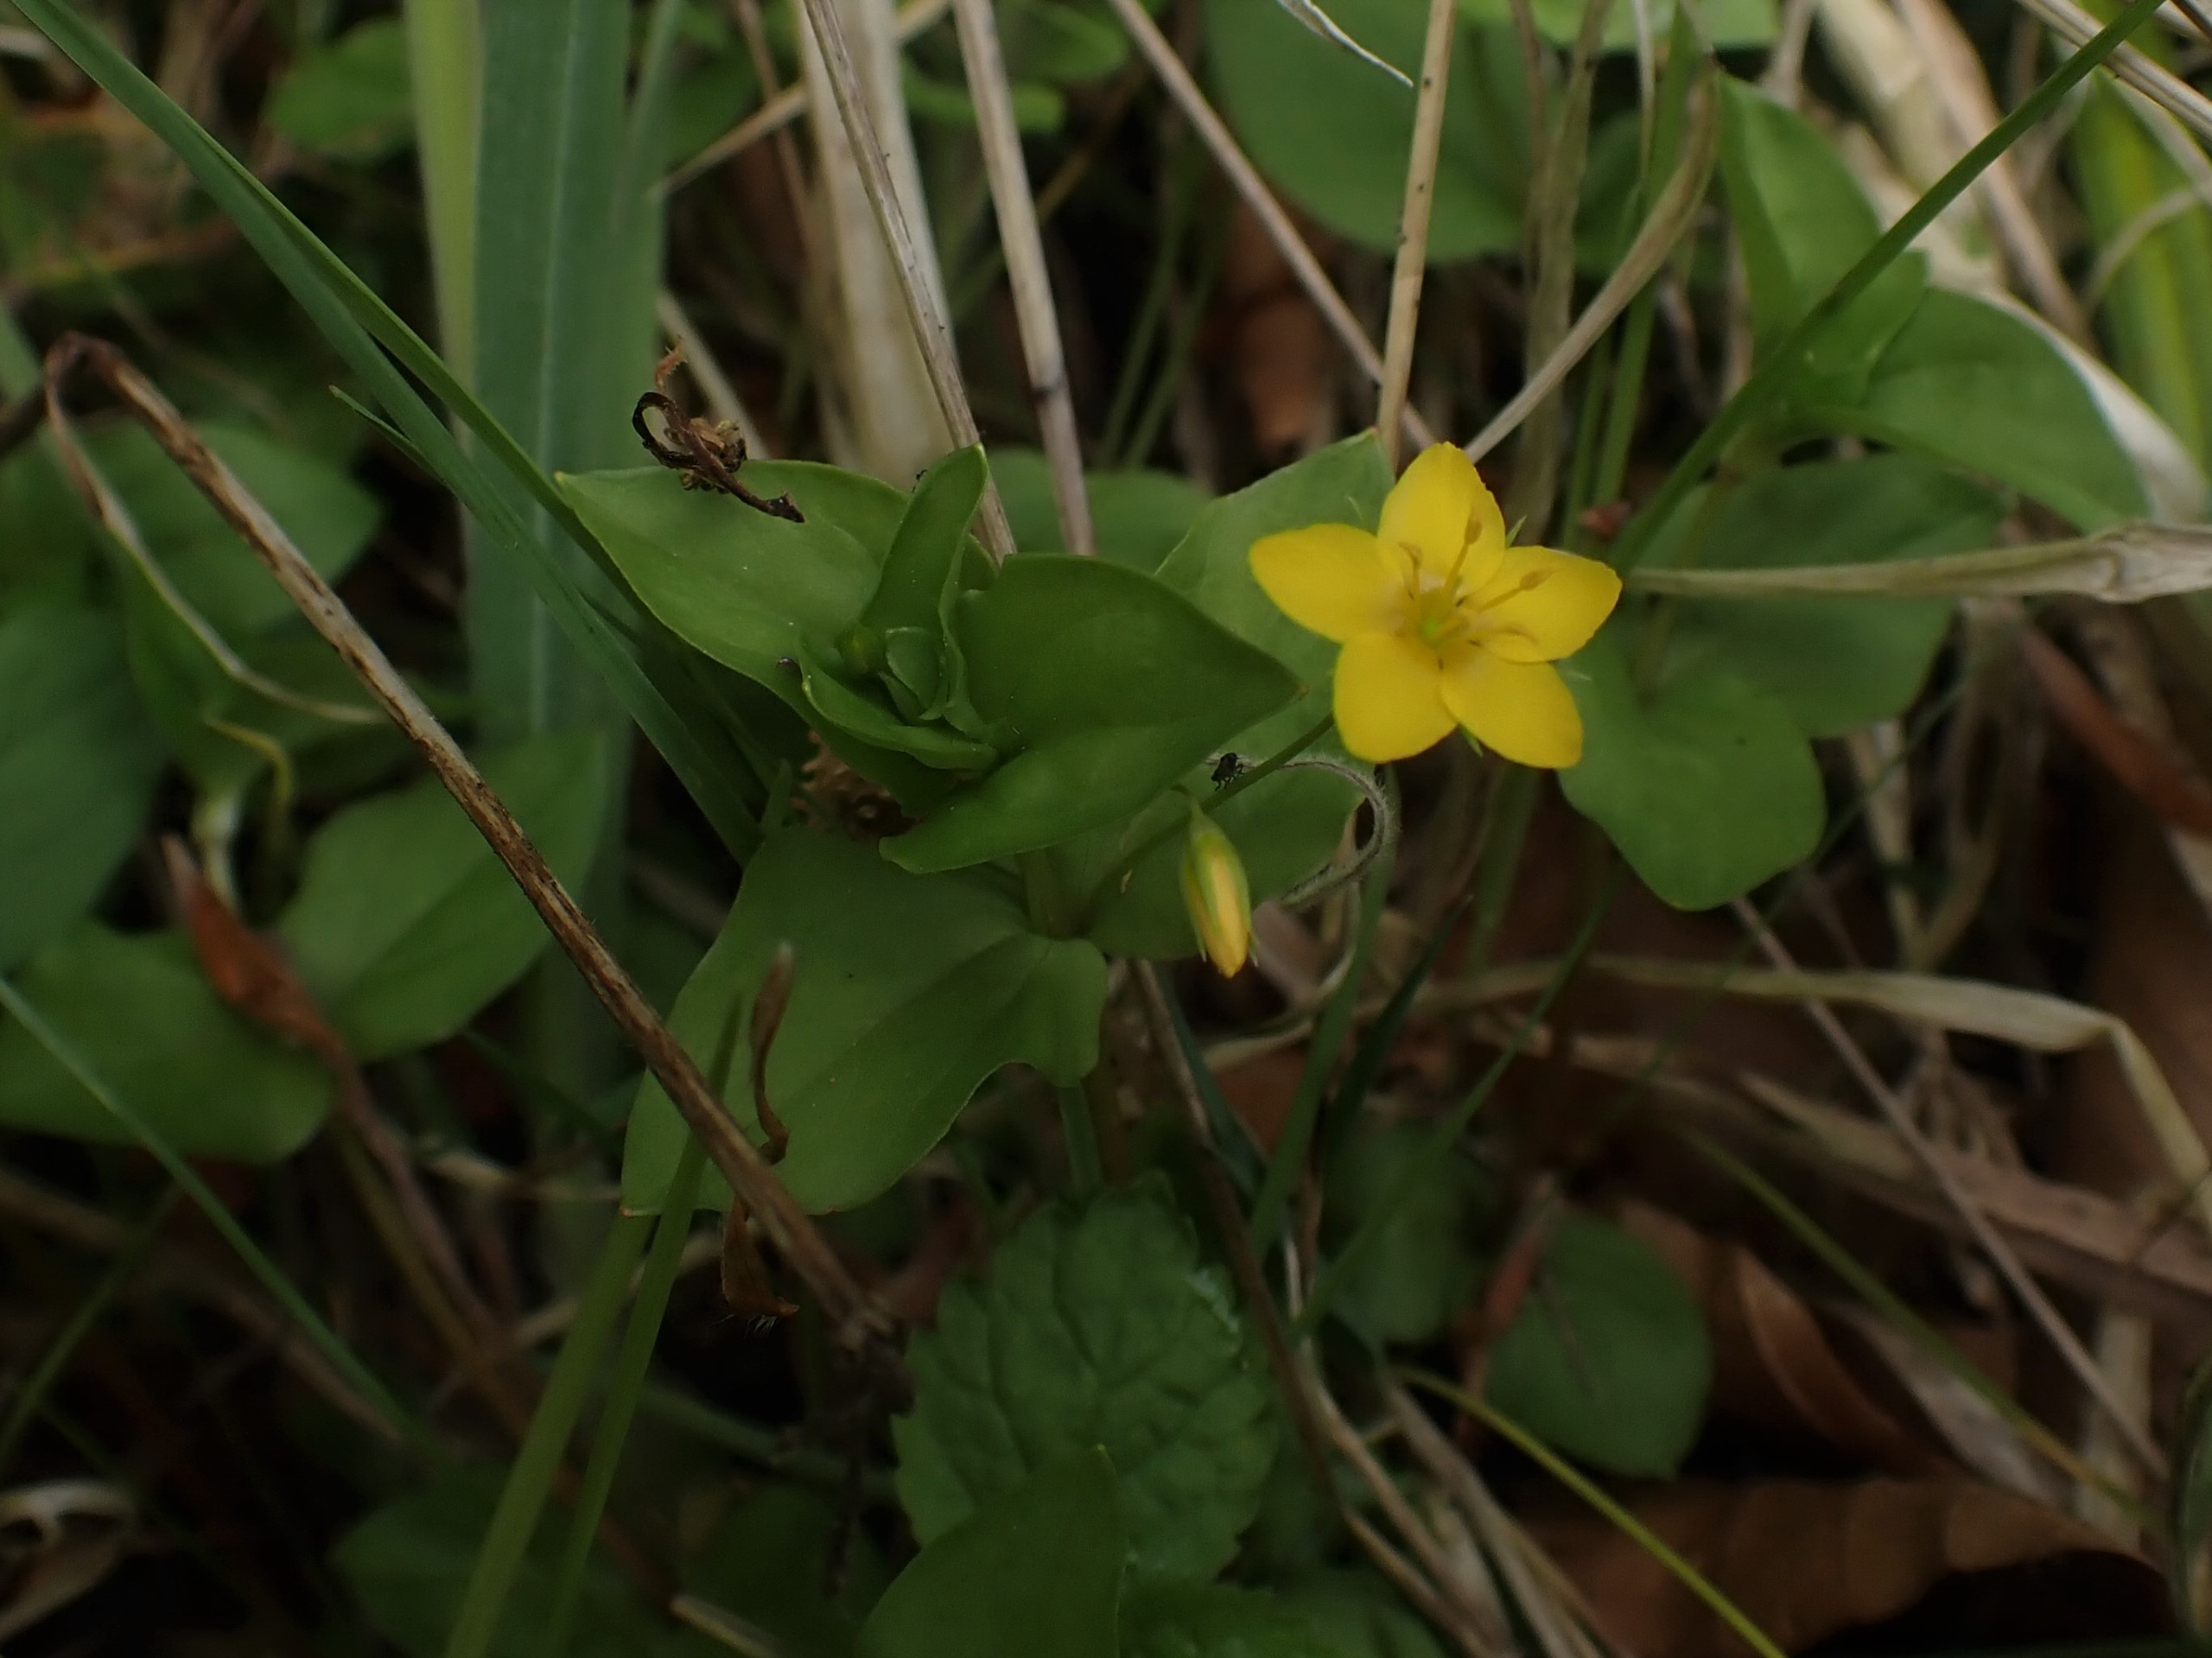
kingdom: Plantae
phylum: Tracheophyta
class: Magnoliopsida
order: Ericales
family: Primulaceae
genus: Lysimachia
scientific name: Lysimachia nemorum
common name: Lund-fredløs
